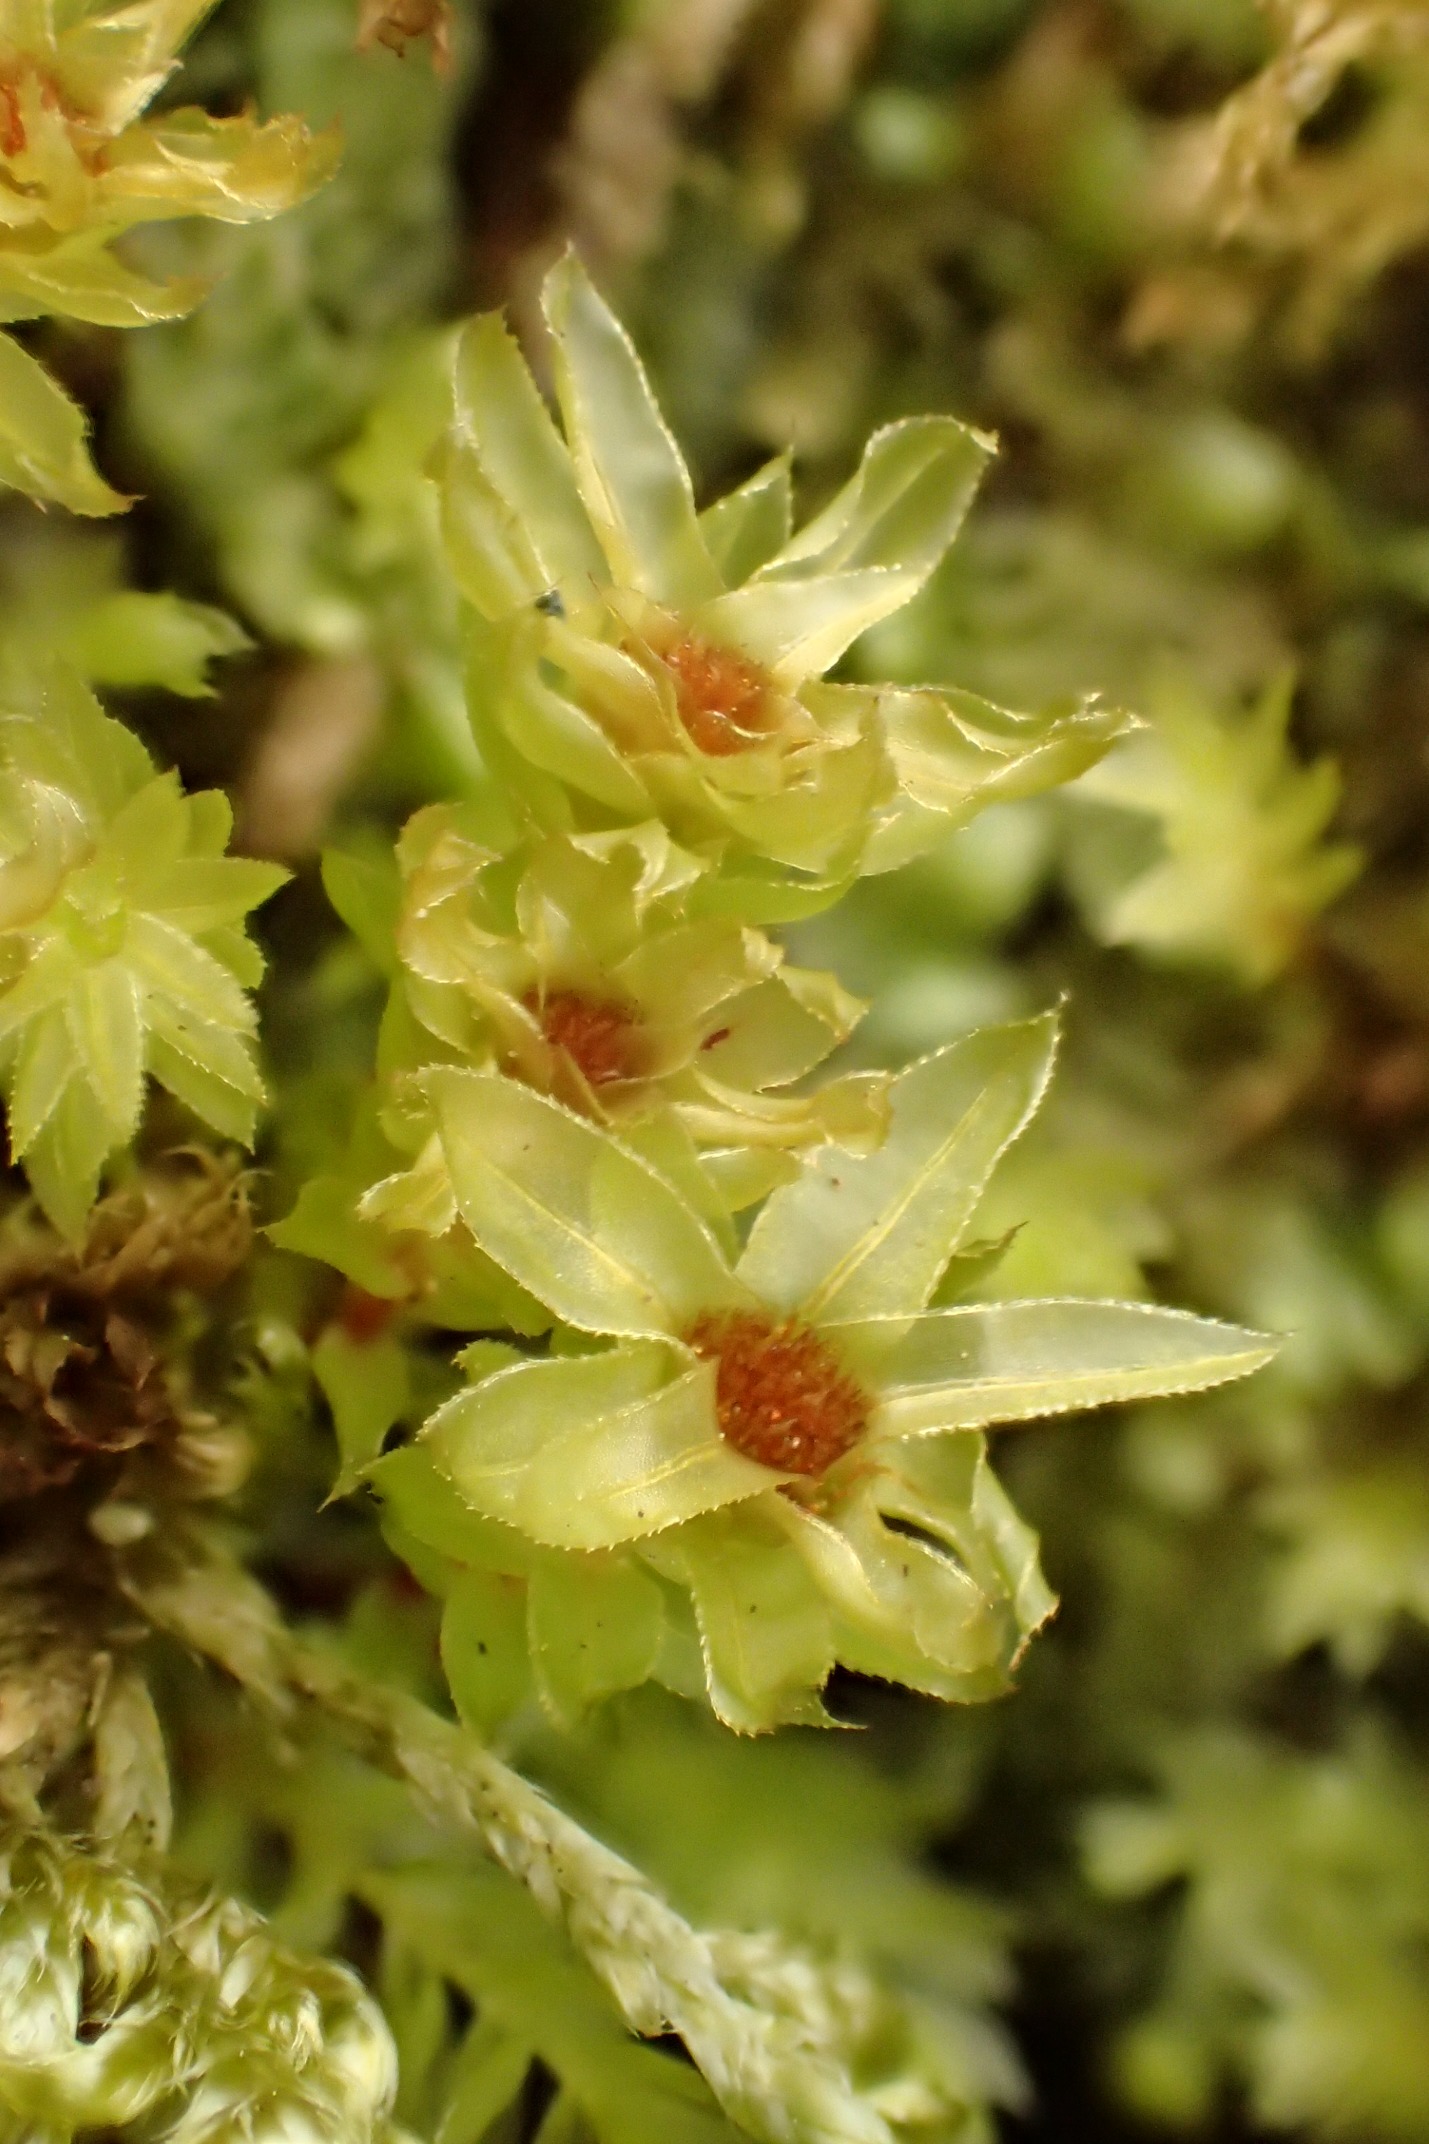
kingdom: Plantae
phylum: Bryophyta
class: Bryopsida
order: Bryales
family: Mniaceae
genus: Mnium
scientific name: Mnium hornum
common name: Brunfiltet stjernemos
